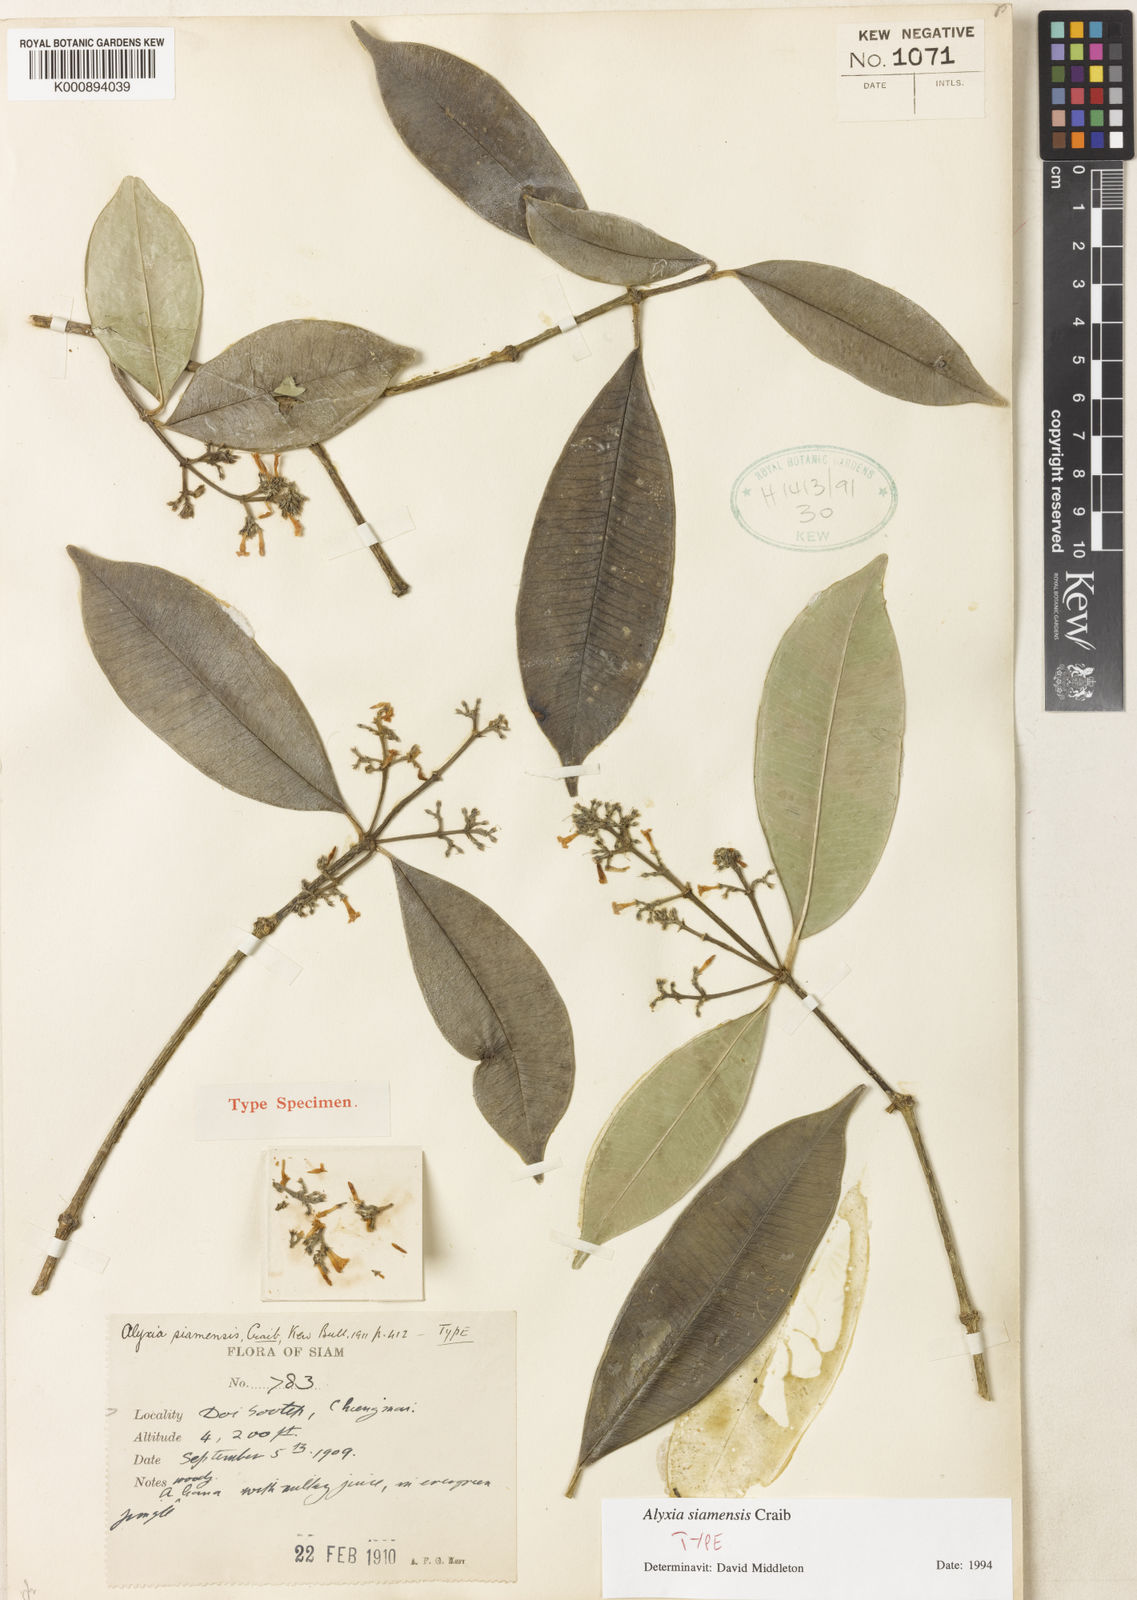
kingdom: Plantae
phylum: Tracheophyta
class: Magnoliopsida
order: Gentianales
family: Apocynaceae
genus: Alyxia
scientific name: Alyxia siamensis
